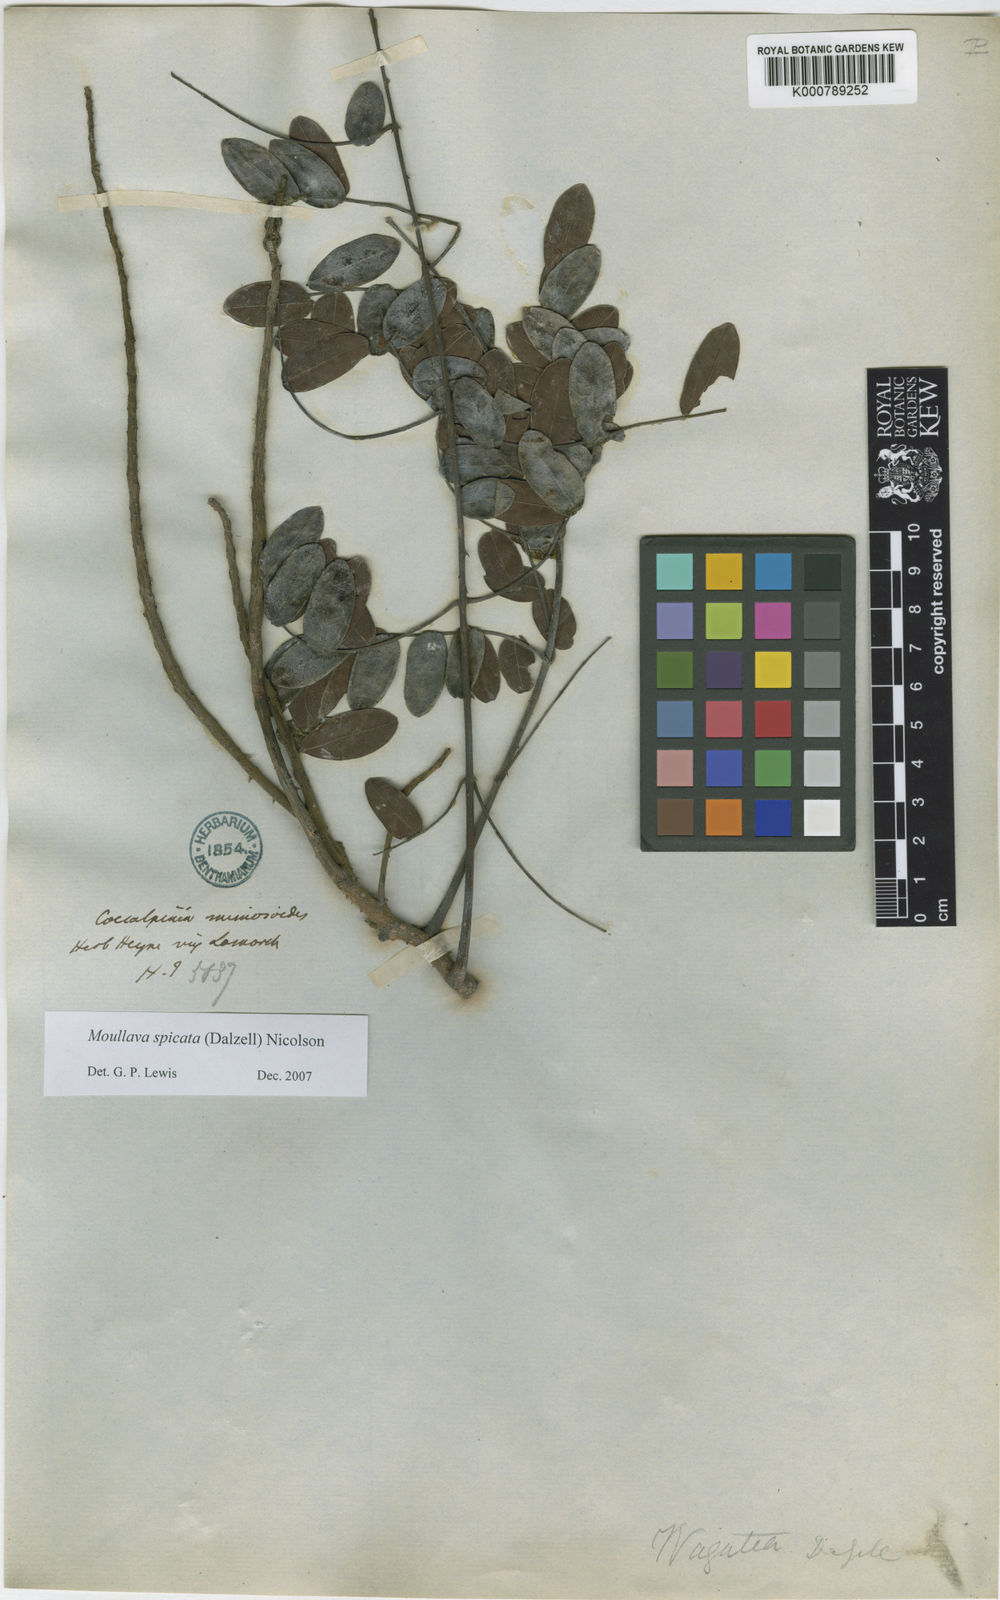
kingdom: Plantae
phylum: Tracheophyta
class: Magnoliopsida
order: Fabales
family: Fabaceae
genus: Moullava
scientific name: Moullava spicata
